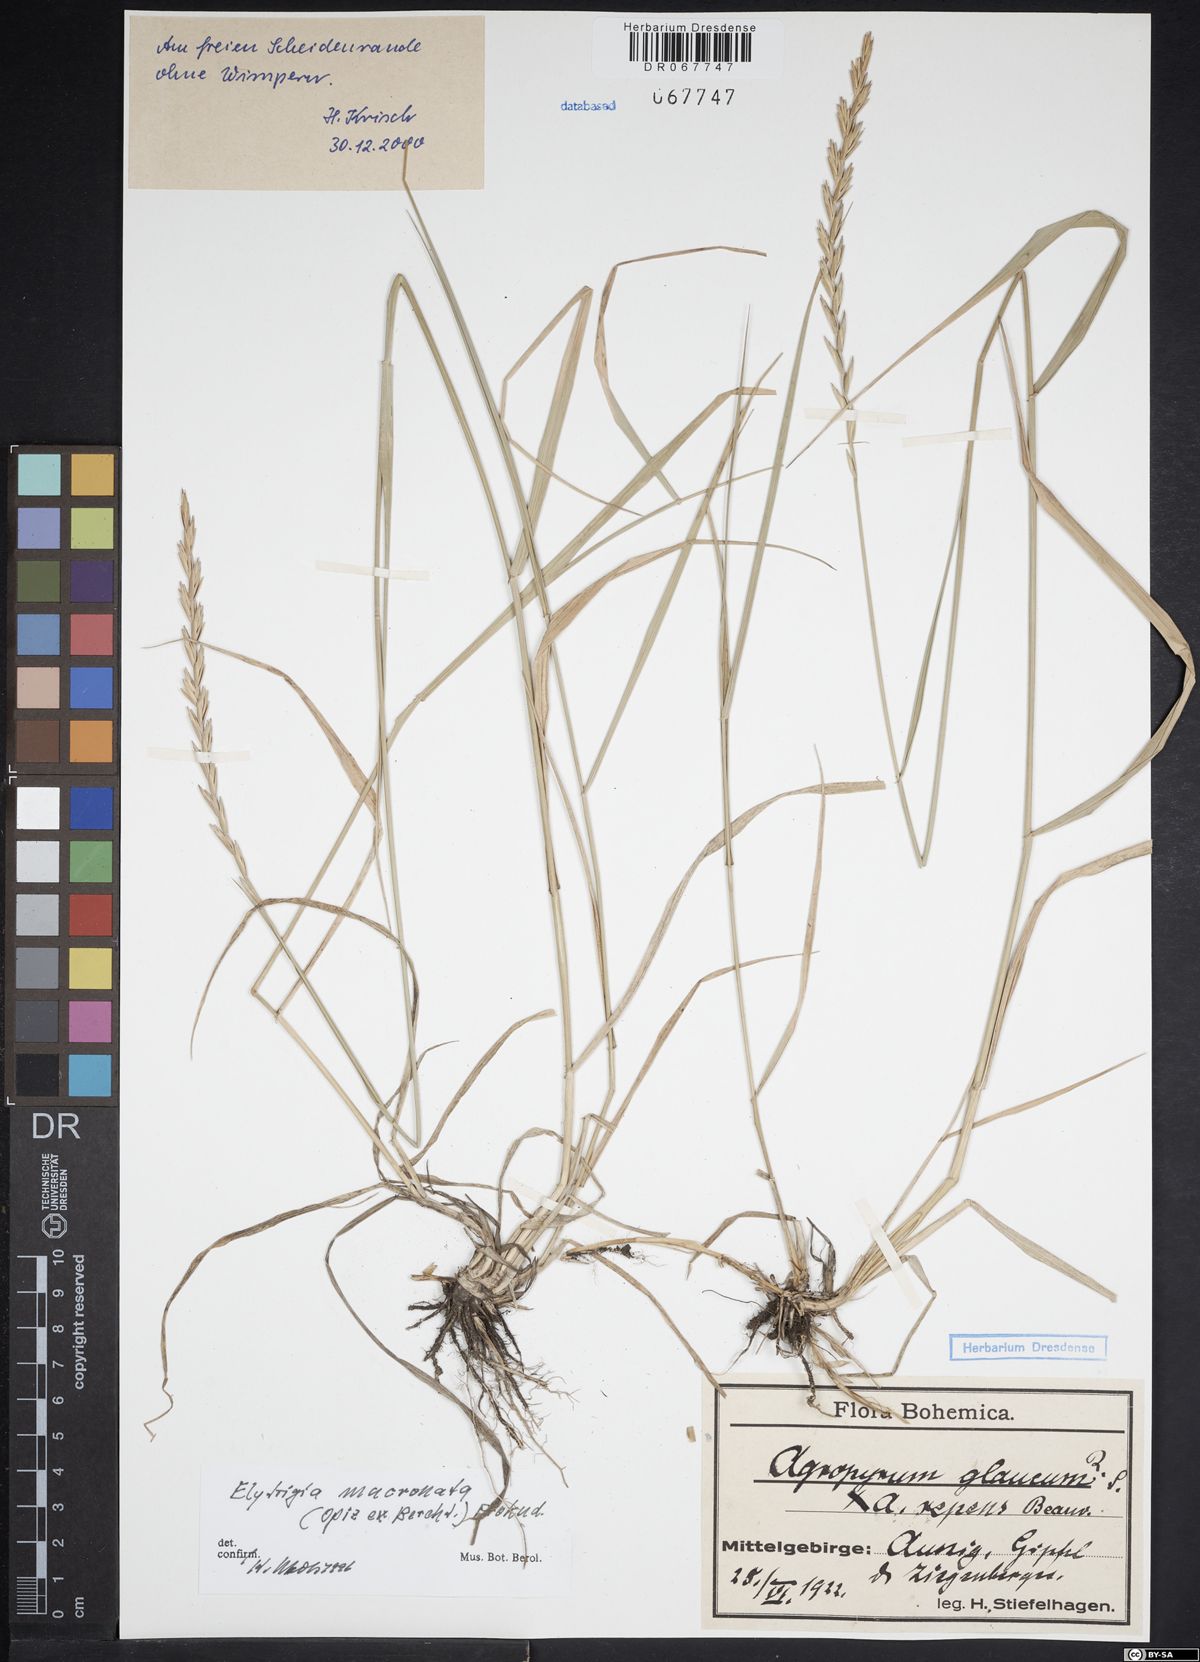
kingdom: Plantae
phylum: Tracheophyta
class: Liliopsida
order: Poales
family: Poaceae
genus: Thinoelymus
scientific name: Thinoelymus mucronatus
